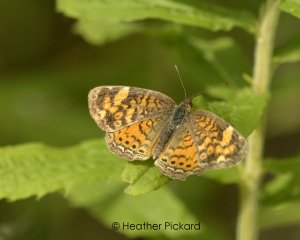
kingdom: Animalia
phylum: Arthropoda
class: Insecta
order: Lepidoptera
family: Nymphalidae
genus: Phyciodes
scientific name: Phyciodes tharos
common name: Pearl Crescent
